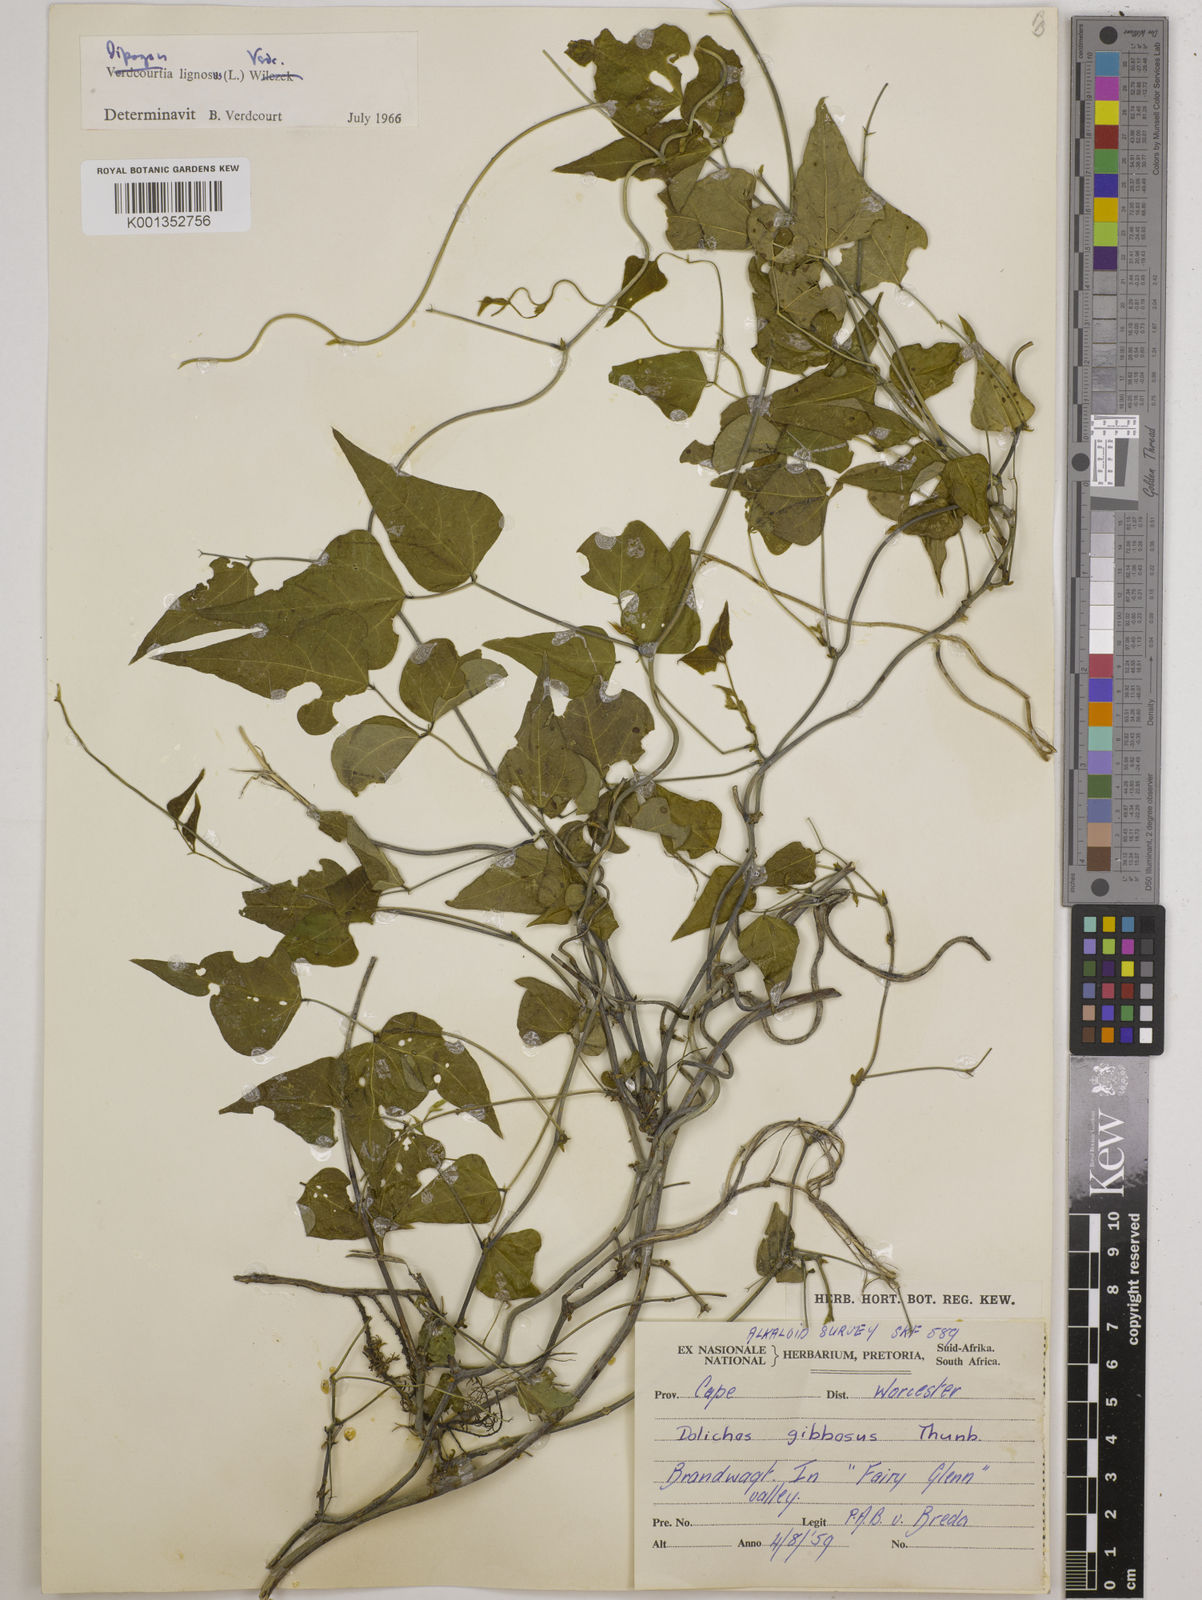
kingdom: Plantae
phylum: Tracheophyta
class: Magnoliopsida
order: Fabales
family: Fabaceae
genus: Dipogon
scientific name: Dipogon lignosus
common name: Okie bean
